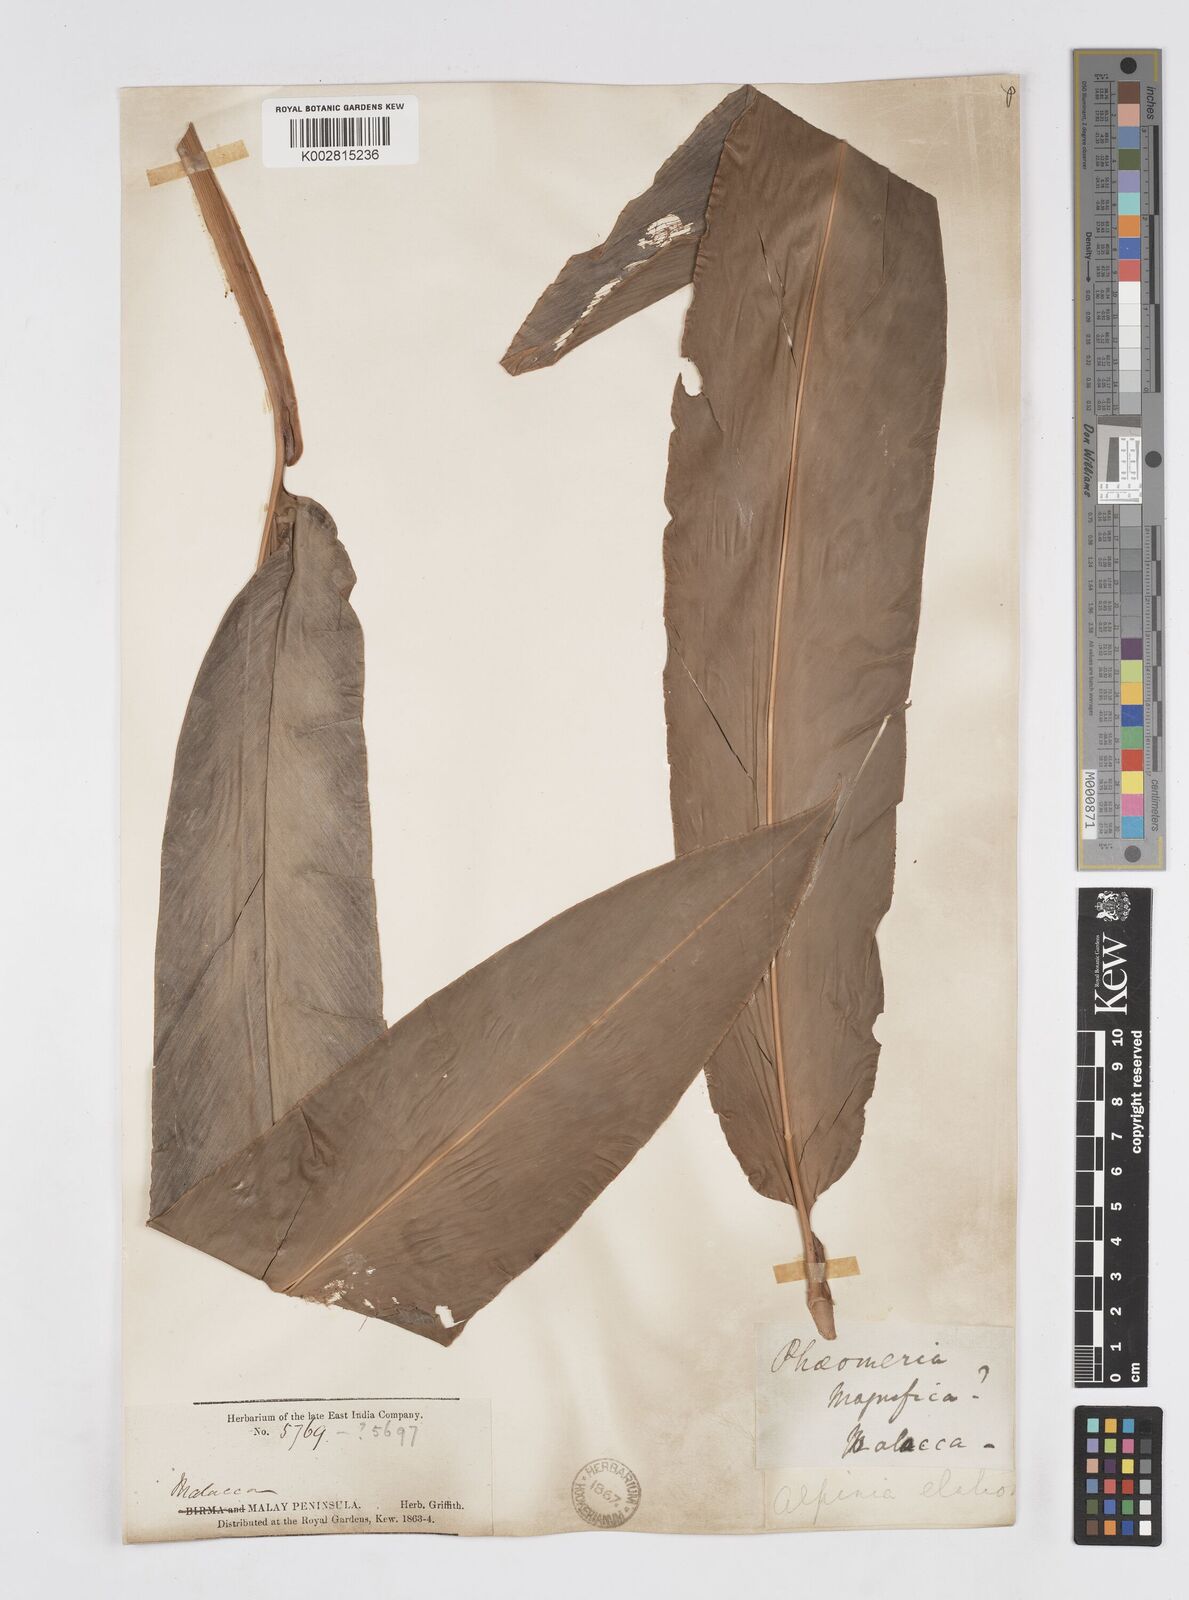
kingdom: Plantae
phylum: Tracheophyta
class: Liliopsida
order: Zingiberales
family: Zingiberaceae
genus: Alpinia
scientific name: Alpinia javanica
